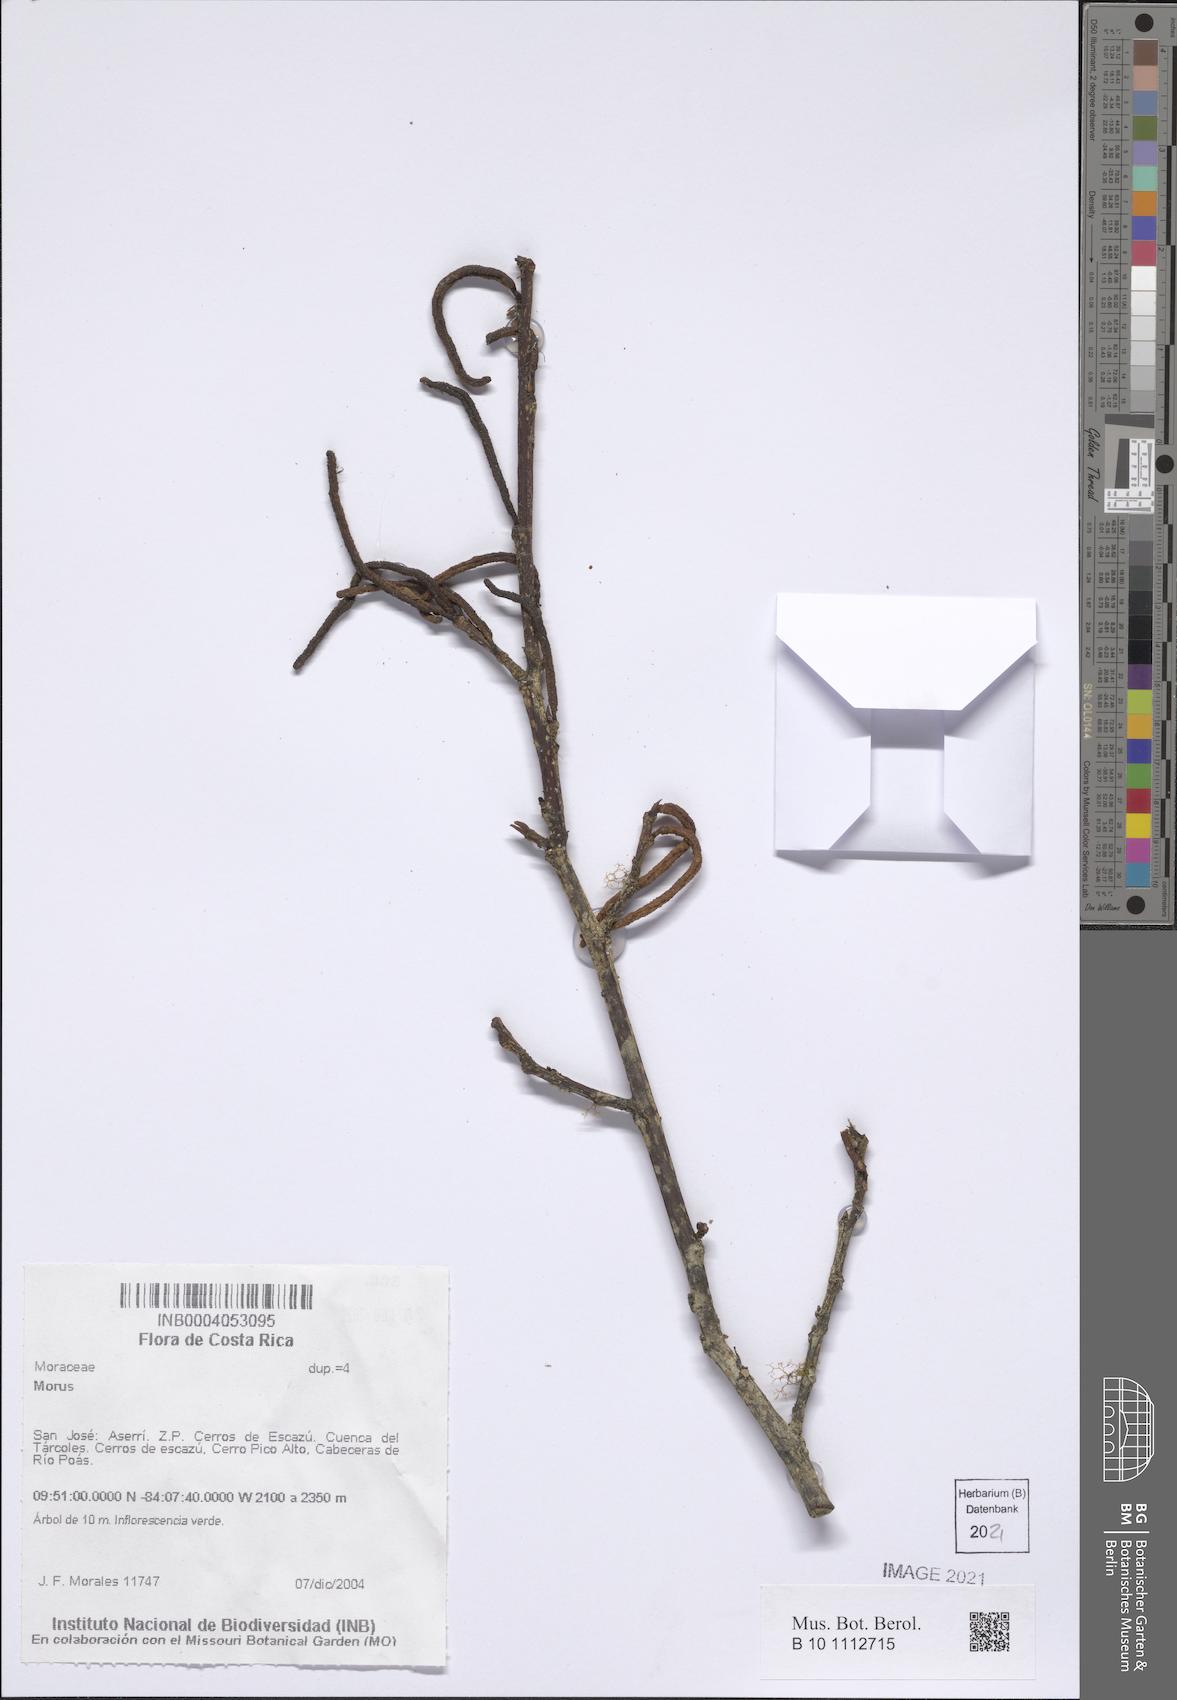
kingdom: Plantae
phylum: Tracheophyta
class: Magnoliopsida
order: Rosales
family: Moraceae
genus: Morus
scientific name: Morus
